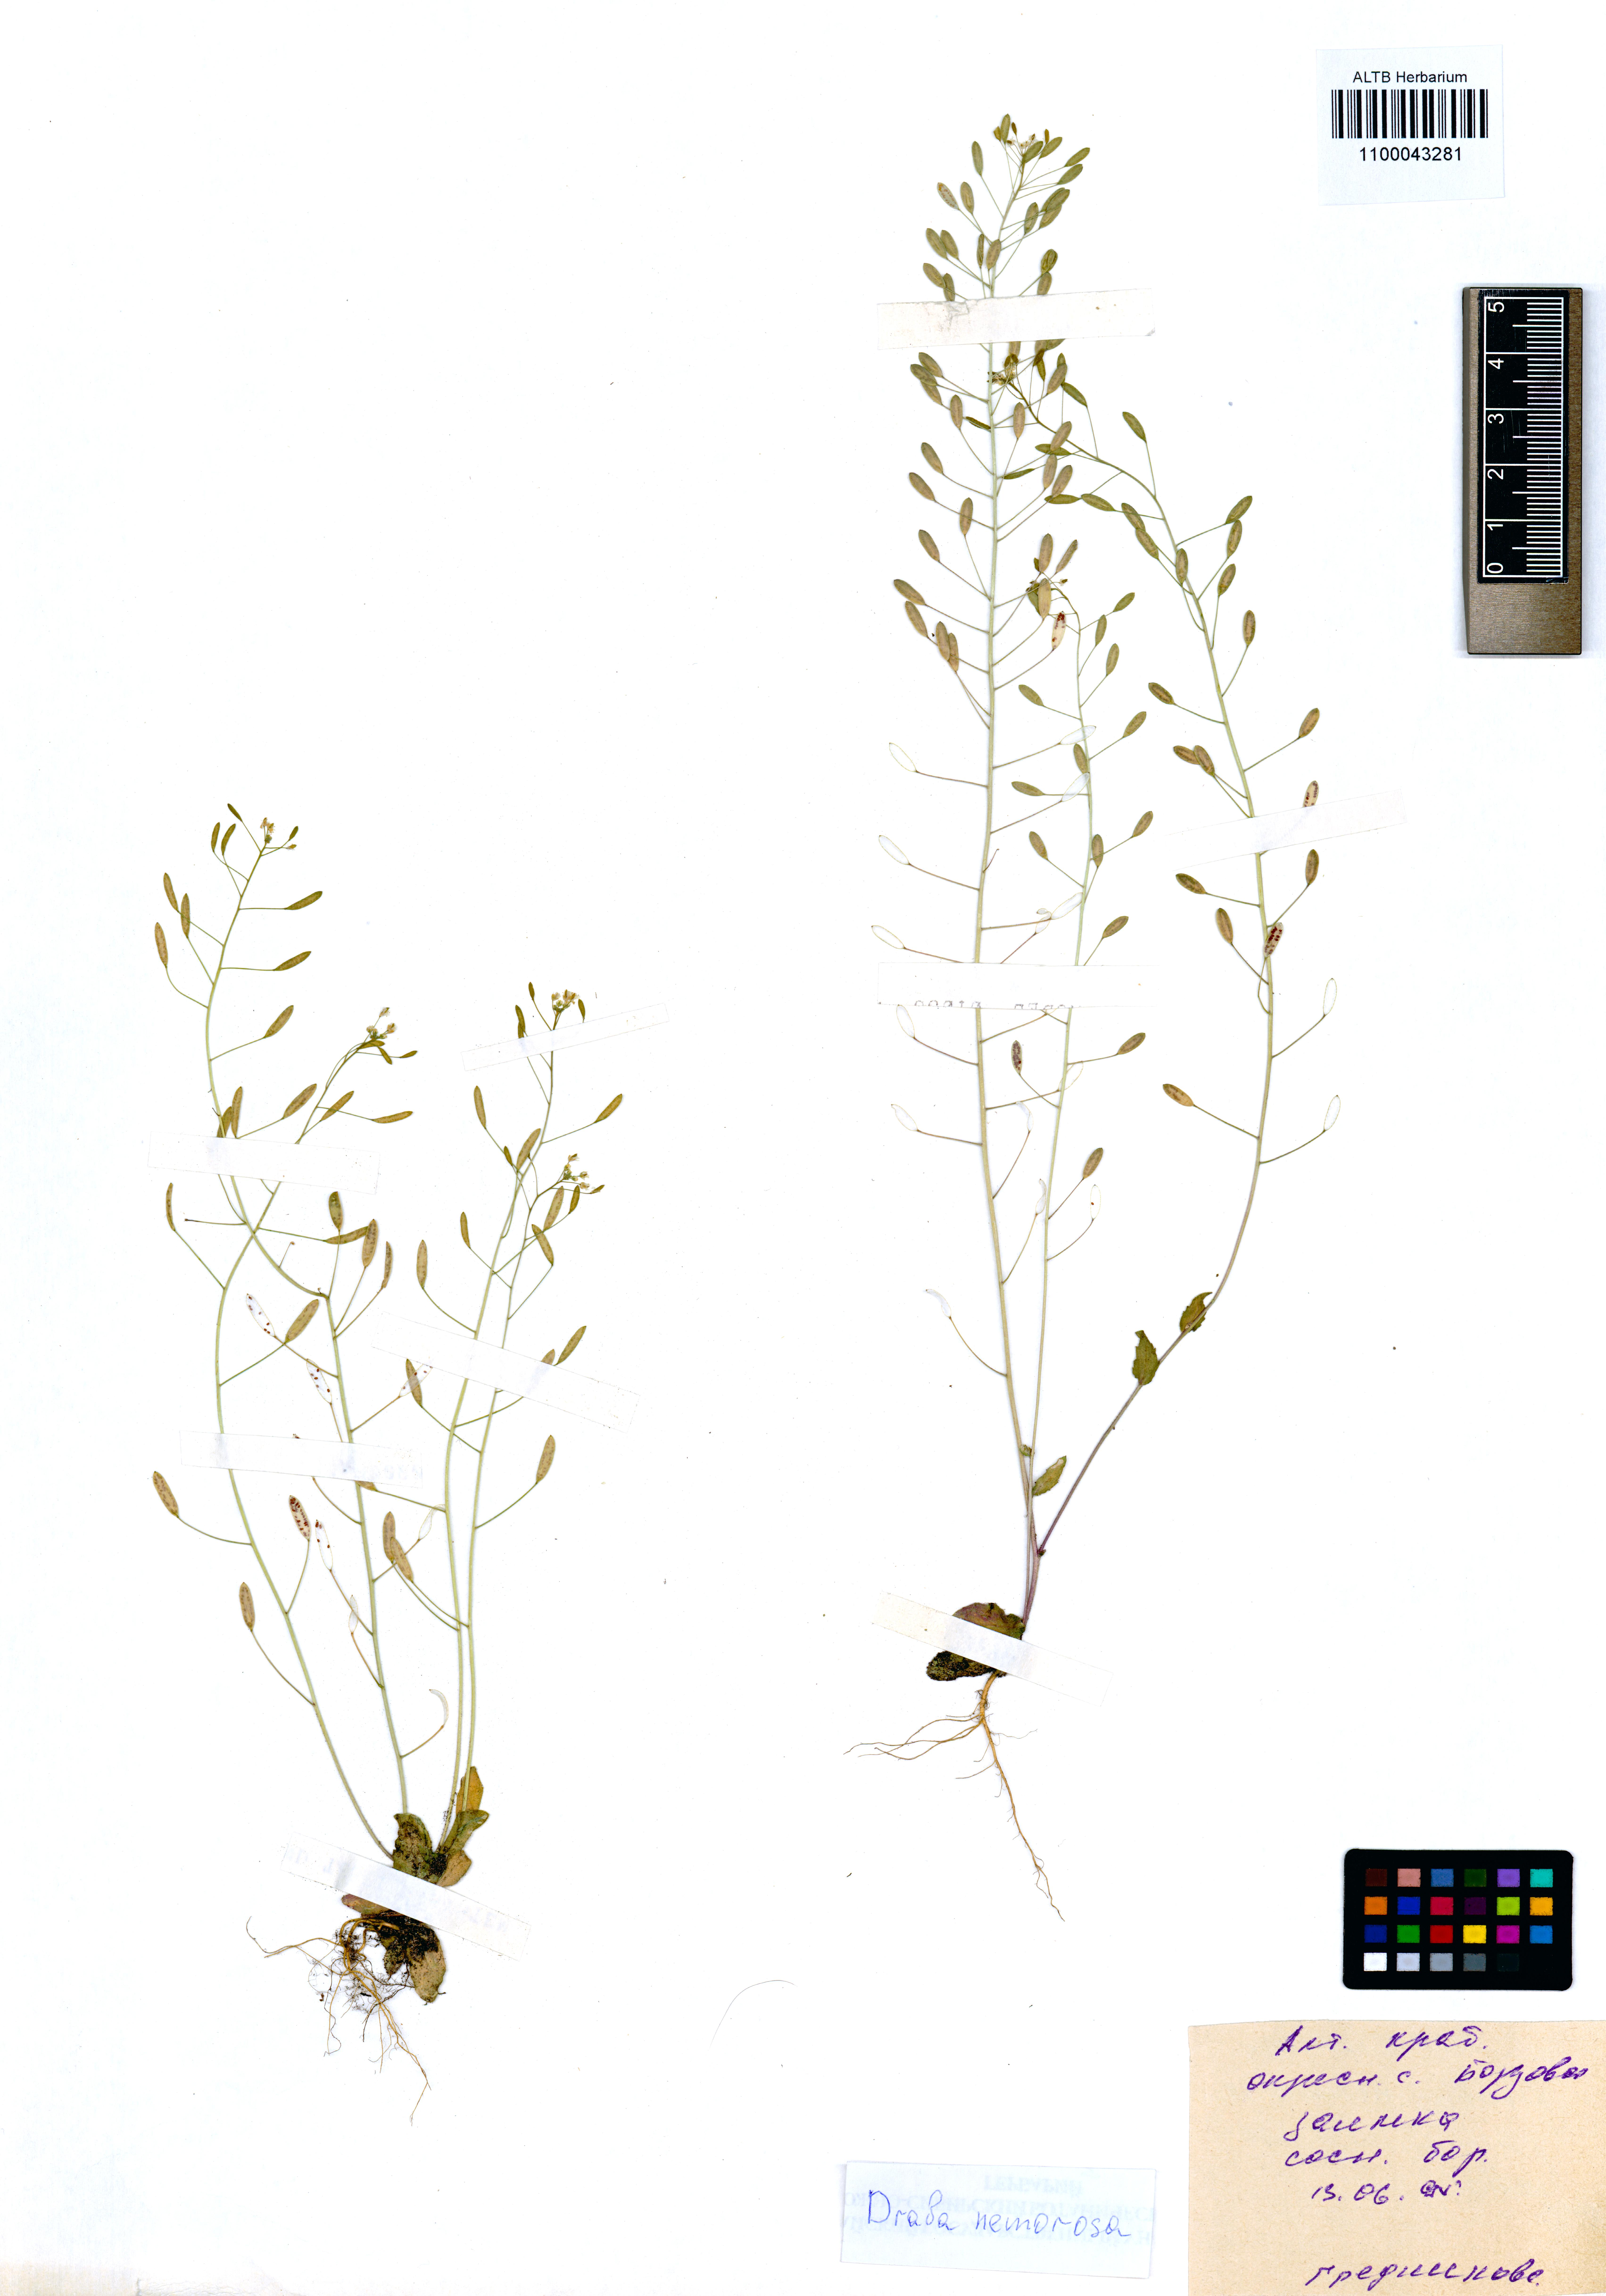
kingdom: Plantae
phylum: Tracheophyta
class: Magnoliopsida
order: Brassicales
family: Brassicaceae
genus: Draba
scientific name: Draba nemorosa
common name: Wood whitlow-grass
